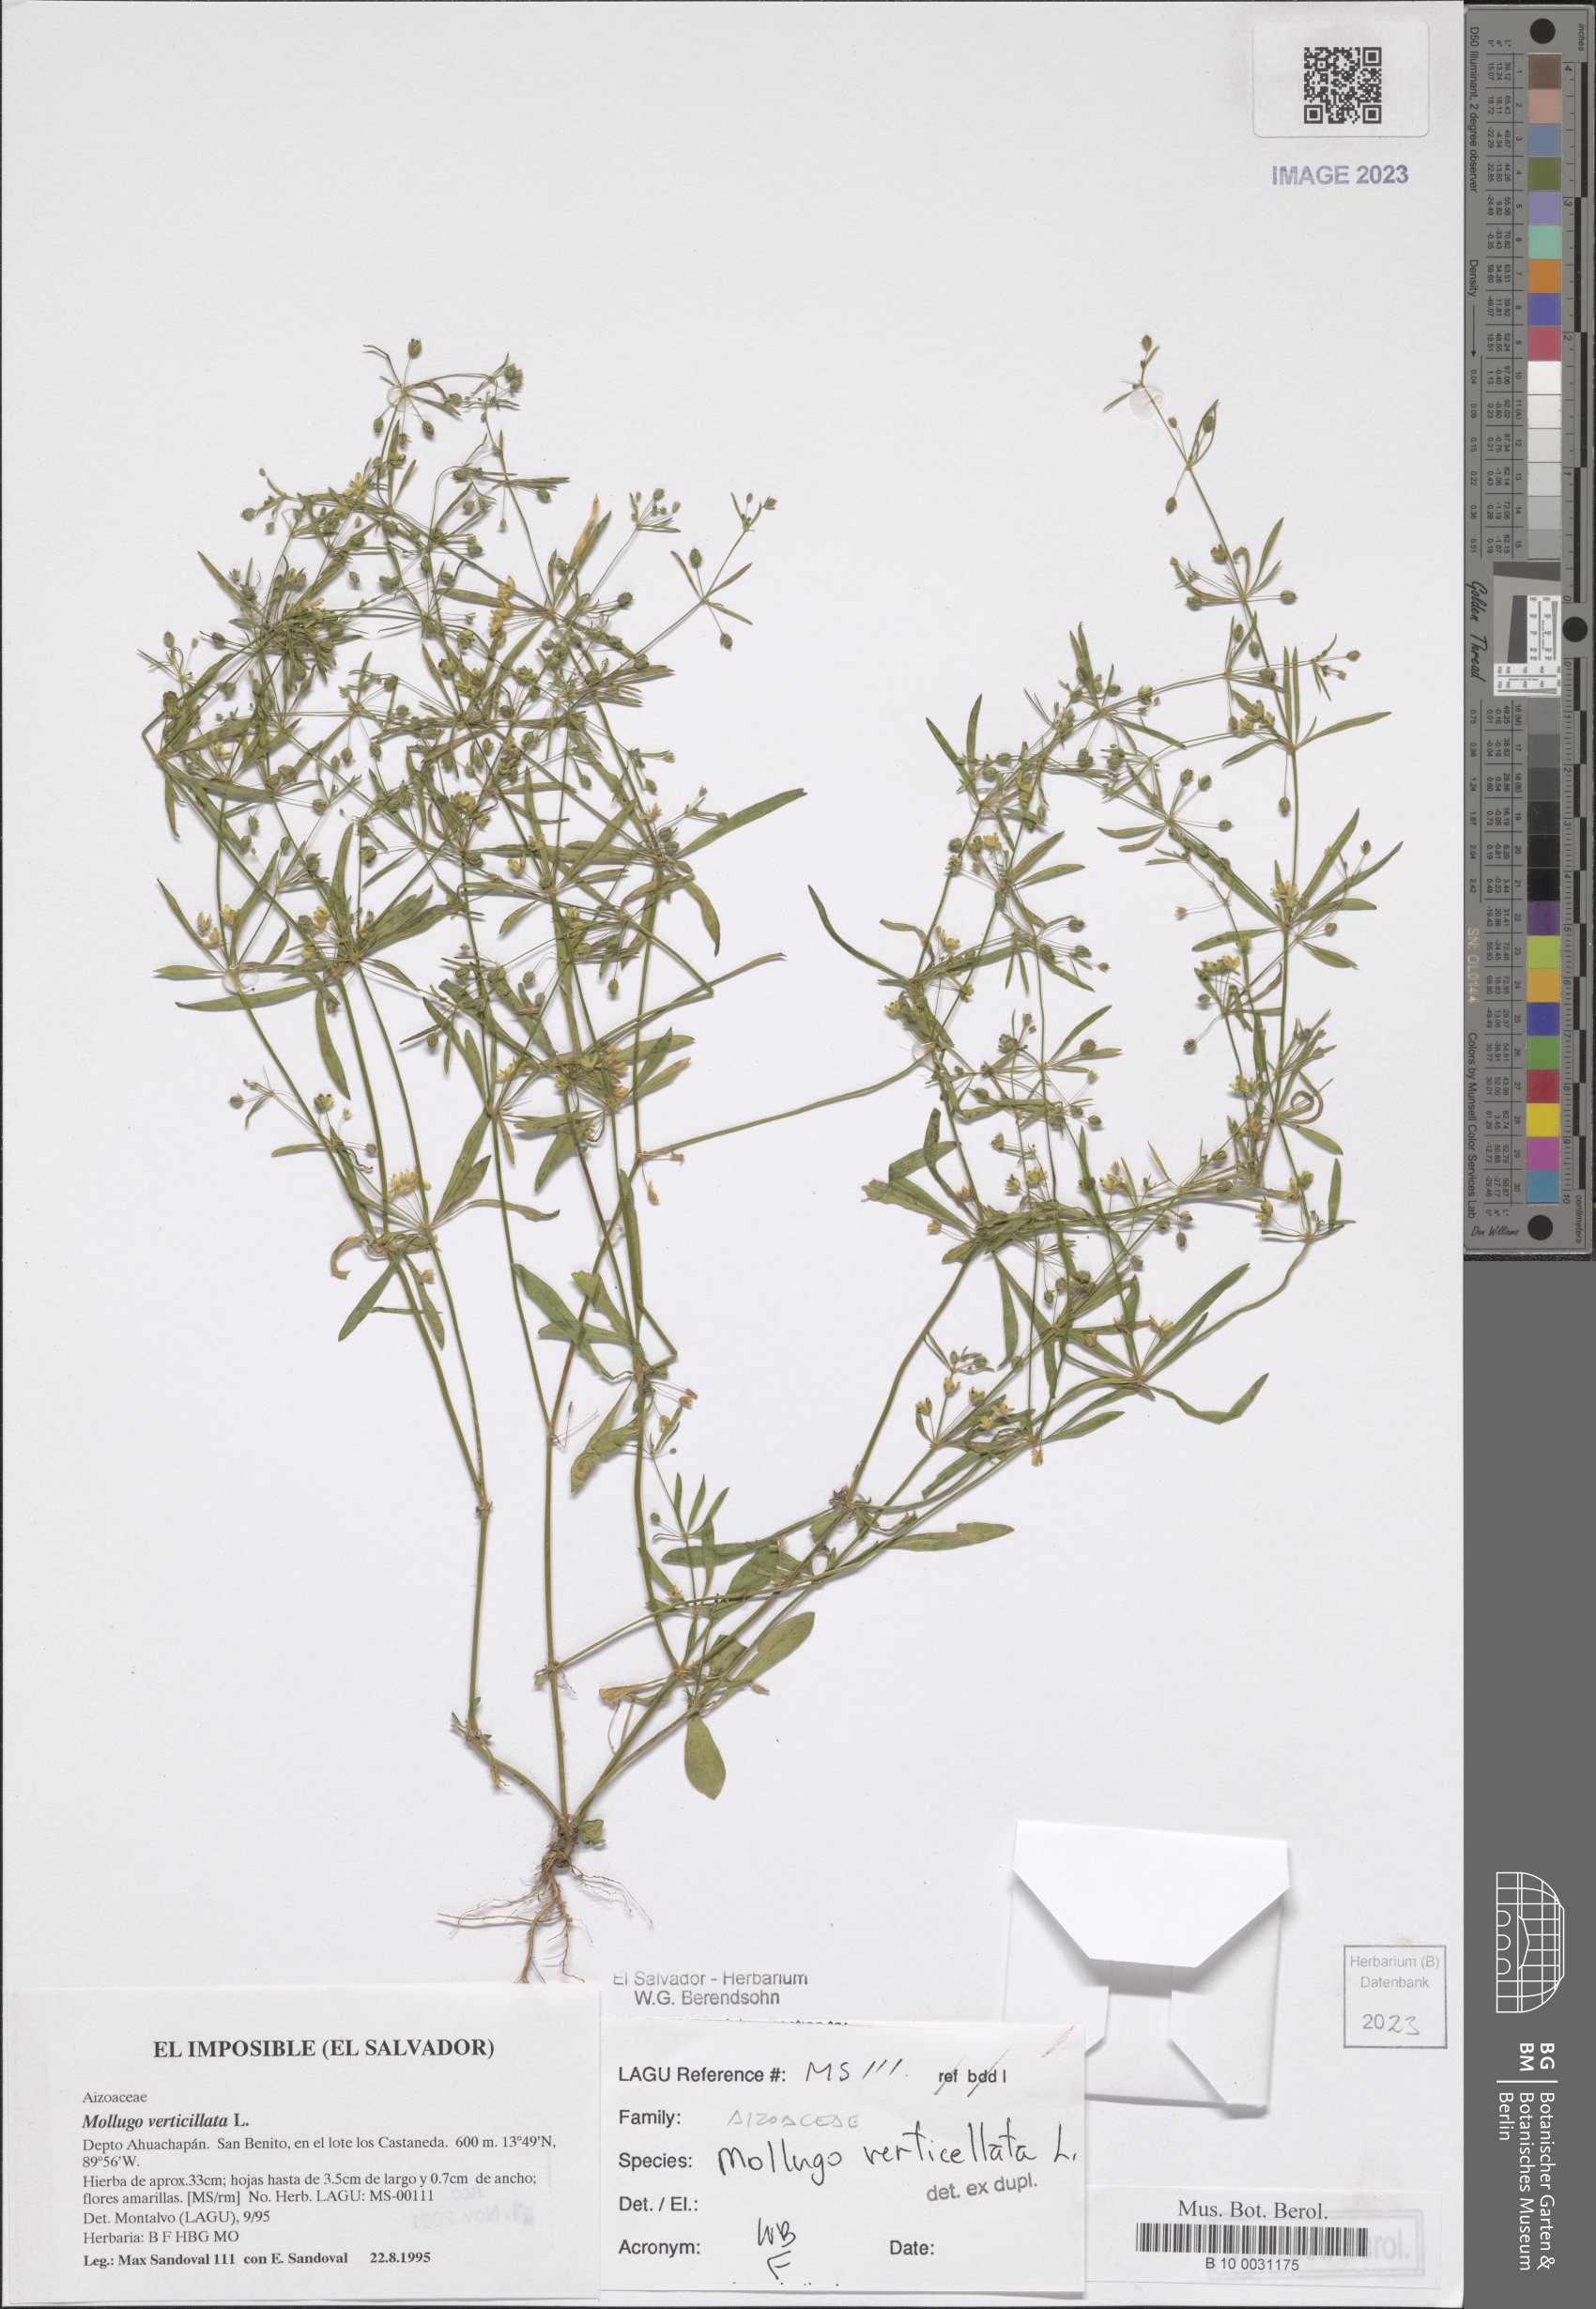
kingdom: Plantae
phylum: Tracheophyta
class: Magnoliopsida
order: Caryophyllales
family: Molluginaceae
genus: Mollugo
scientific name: Mollugo verticillata
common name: Green carpetweed
